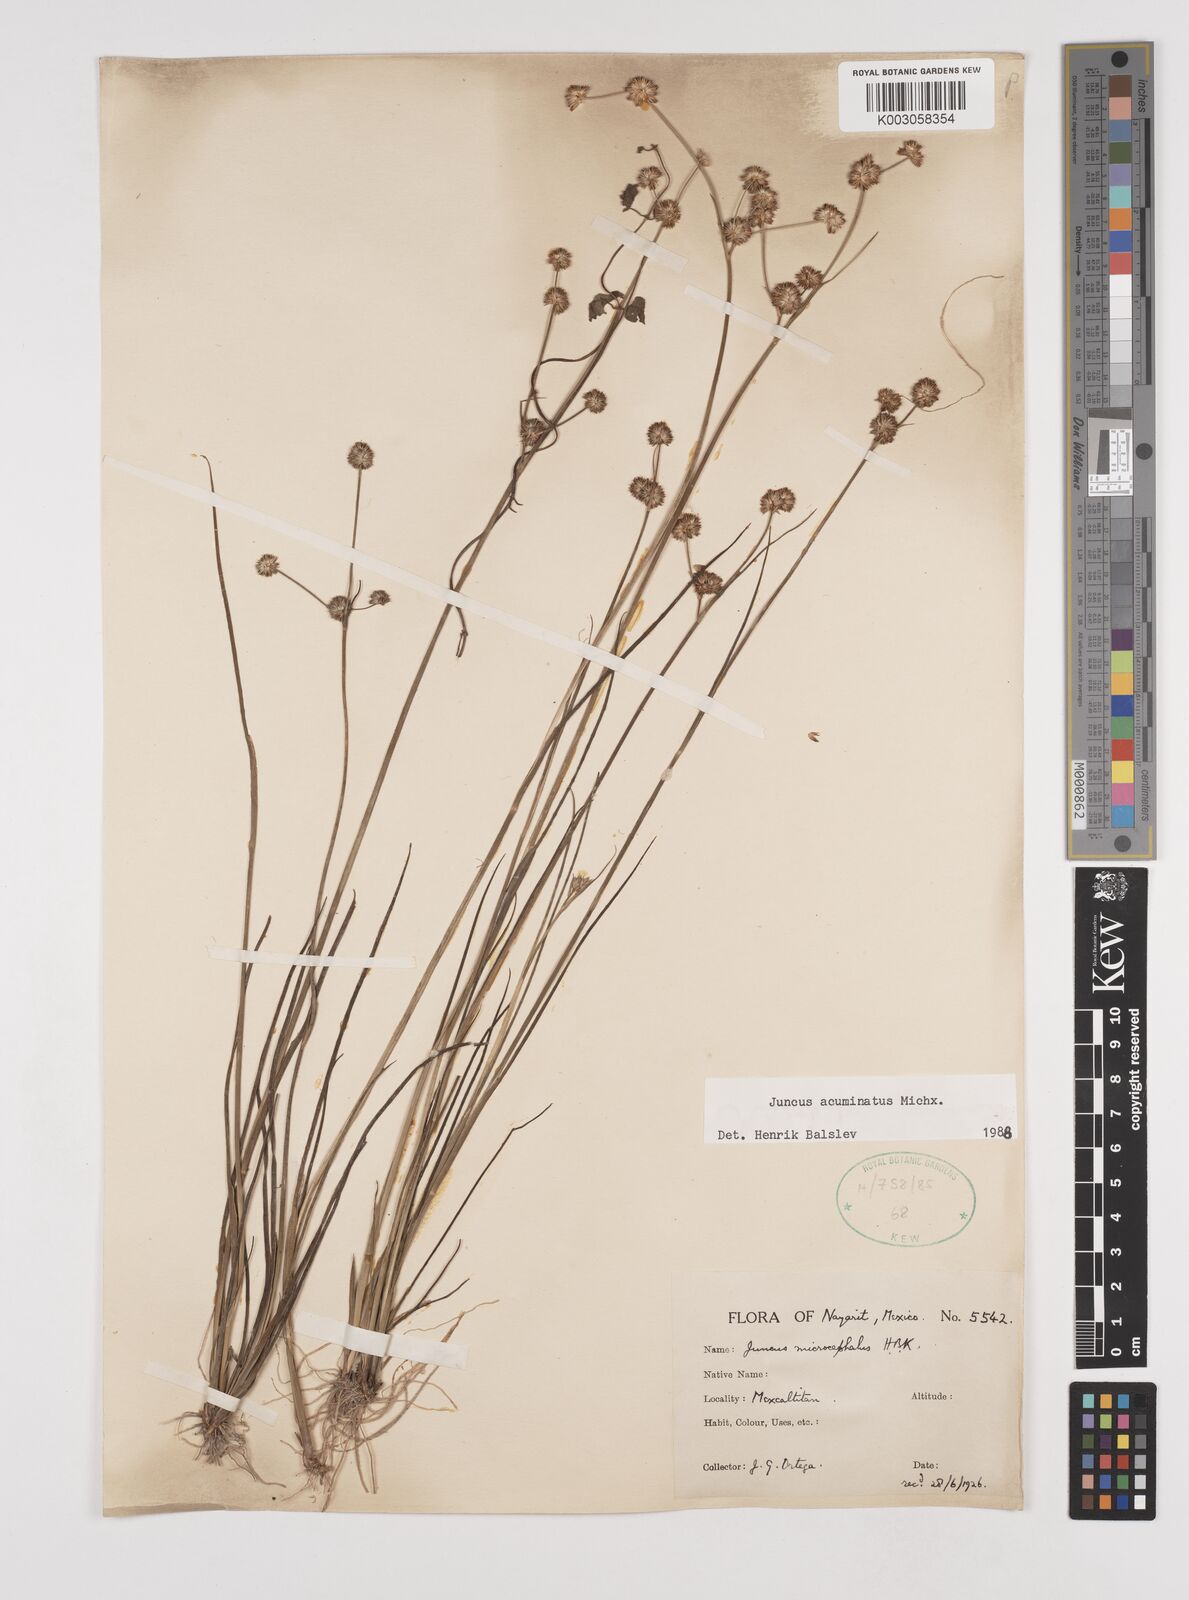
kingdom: Plantae
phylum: Tracheophyta
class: Liliopsida
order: Poales
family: Juncaceae
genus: Juncus
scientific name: Juncus acuminatus
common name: Knotty-leaved rush
